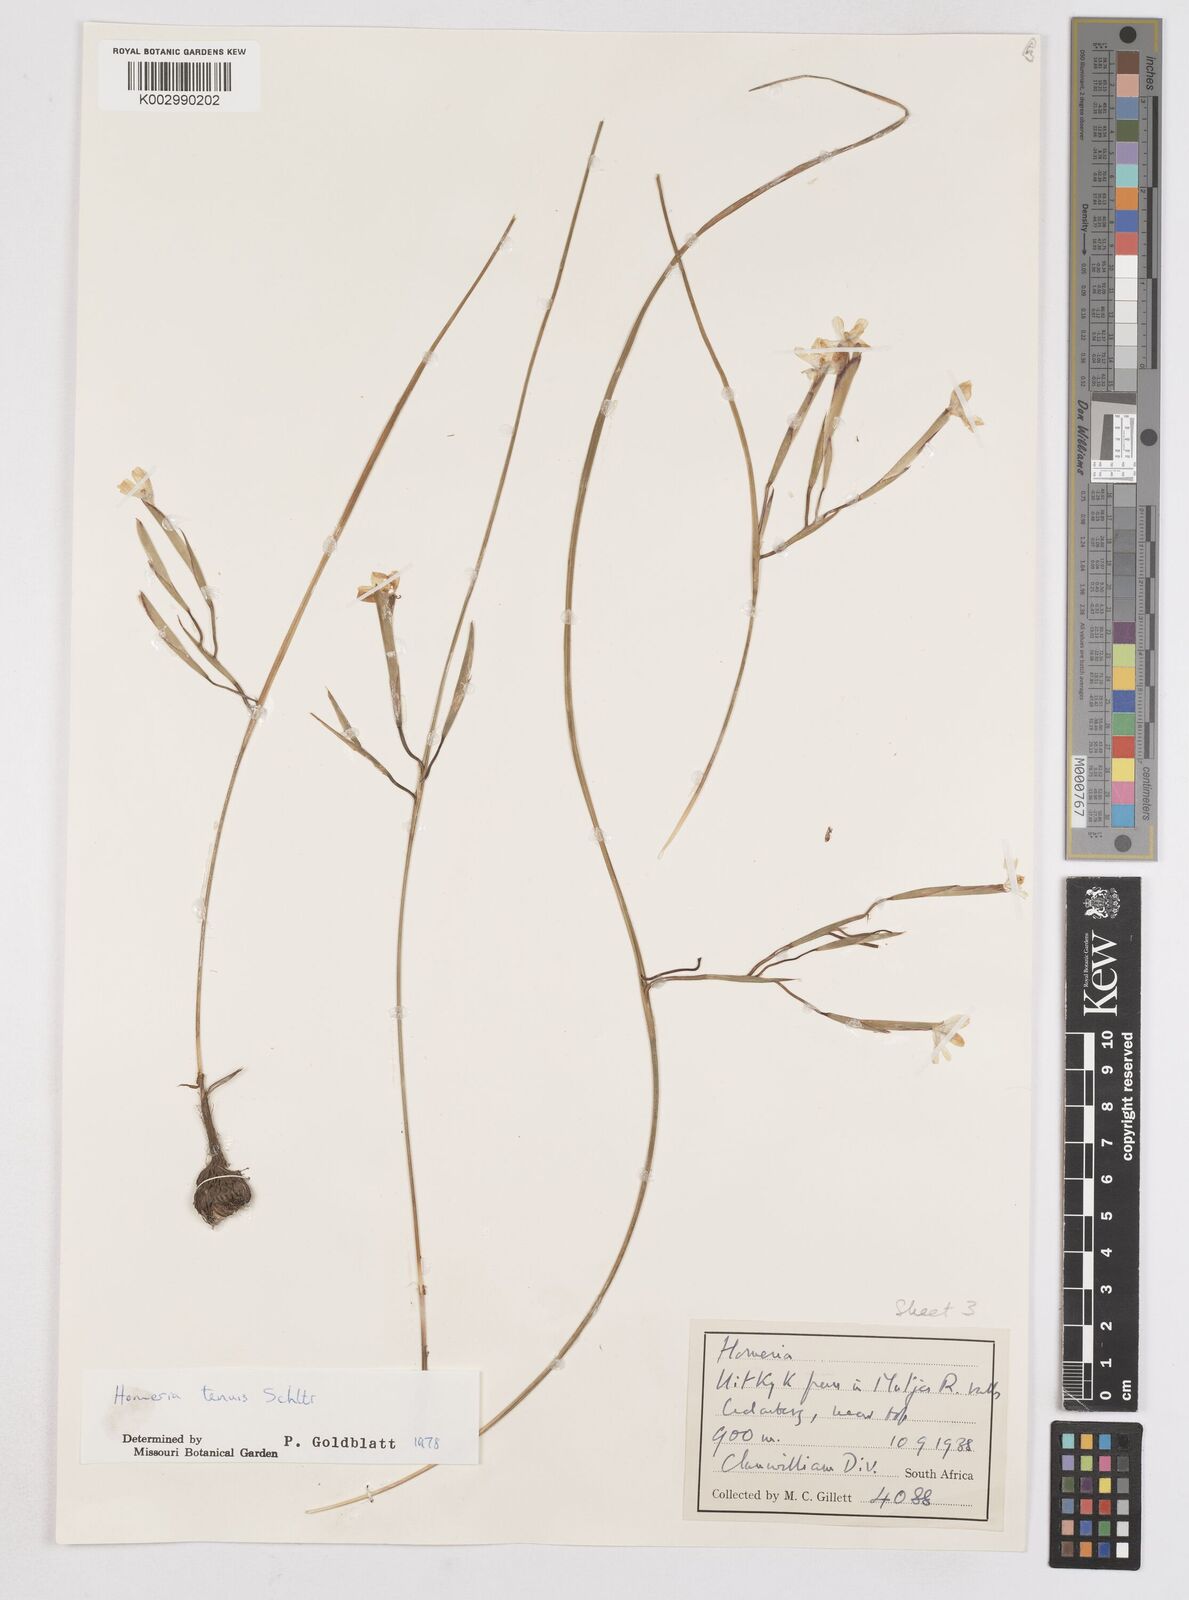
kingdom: Plantae
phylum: Tracheophyta
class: Liliopsida
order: Asparagales
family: Iridaceae
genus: Moraea
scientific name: Moraea unguiculata
